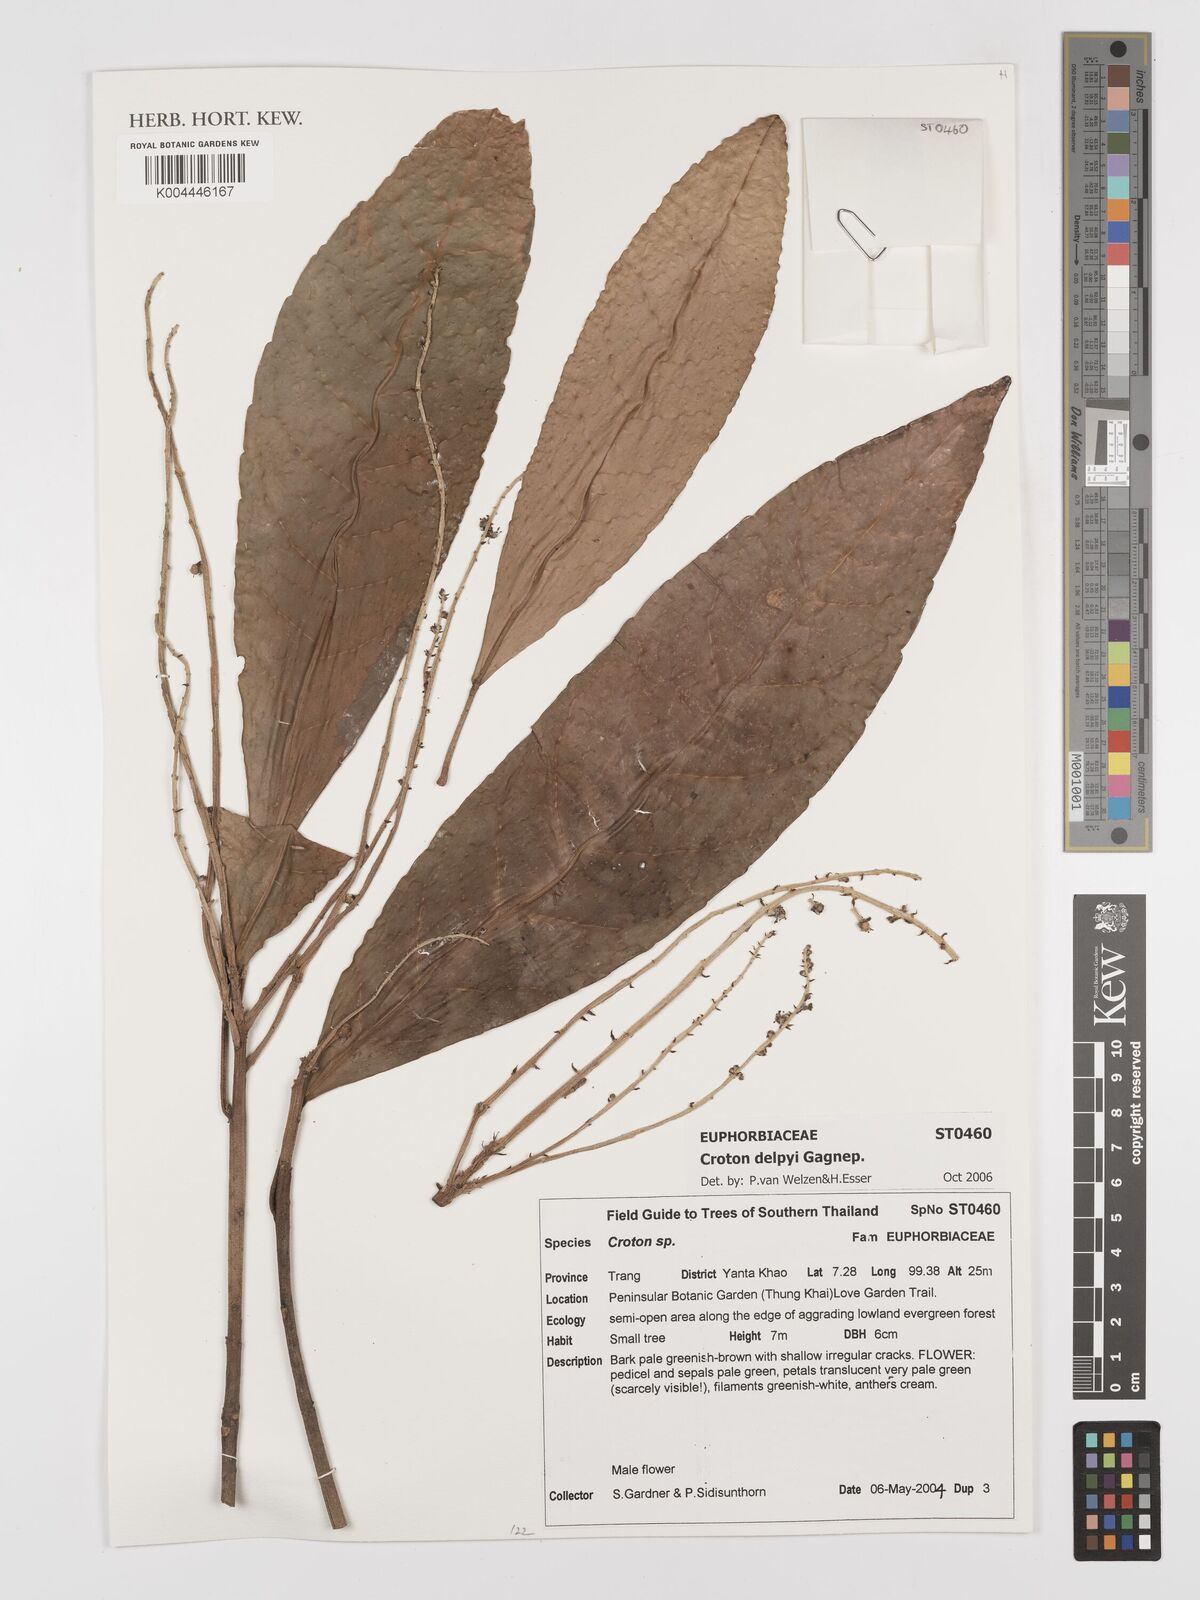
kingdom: Plantae
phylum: Tracheophyta
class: Magnoliopsida
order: Malpighiales
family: Euphorbiaceae
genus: Croton
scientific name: Croton delpyi
